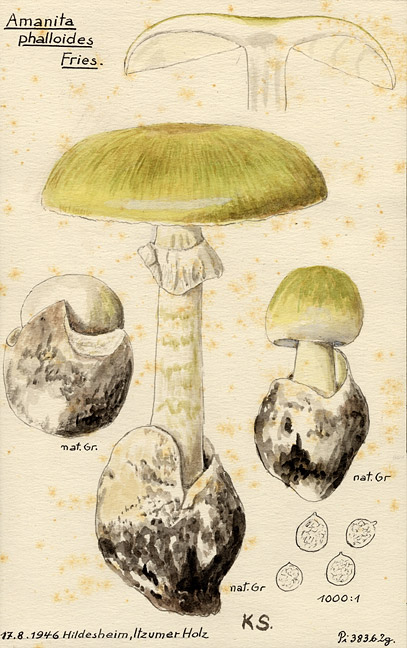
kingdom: Fungi
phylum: Basidiomycota
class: Agaricomycetes
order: Agaricales
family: Amanitaceae
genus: Amanita
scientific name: Amanita phalloides
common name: Death cap
